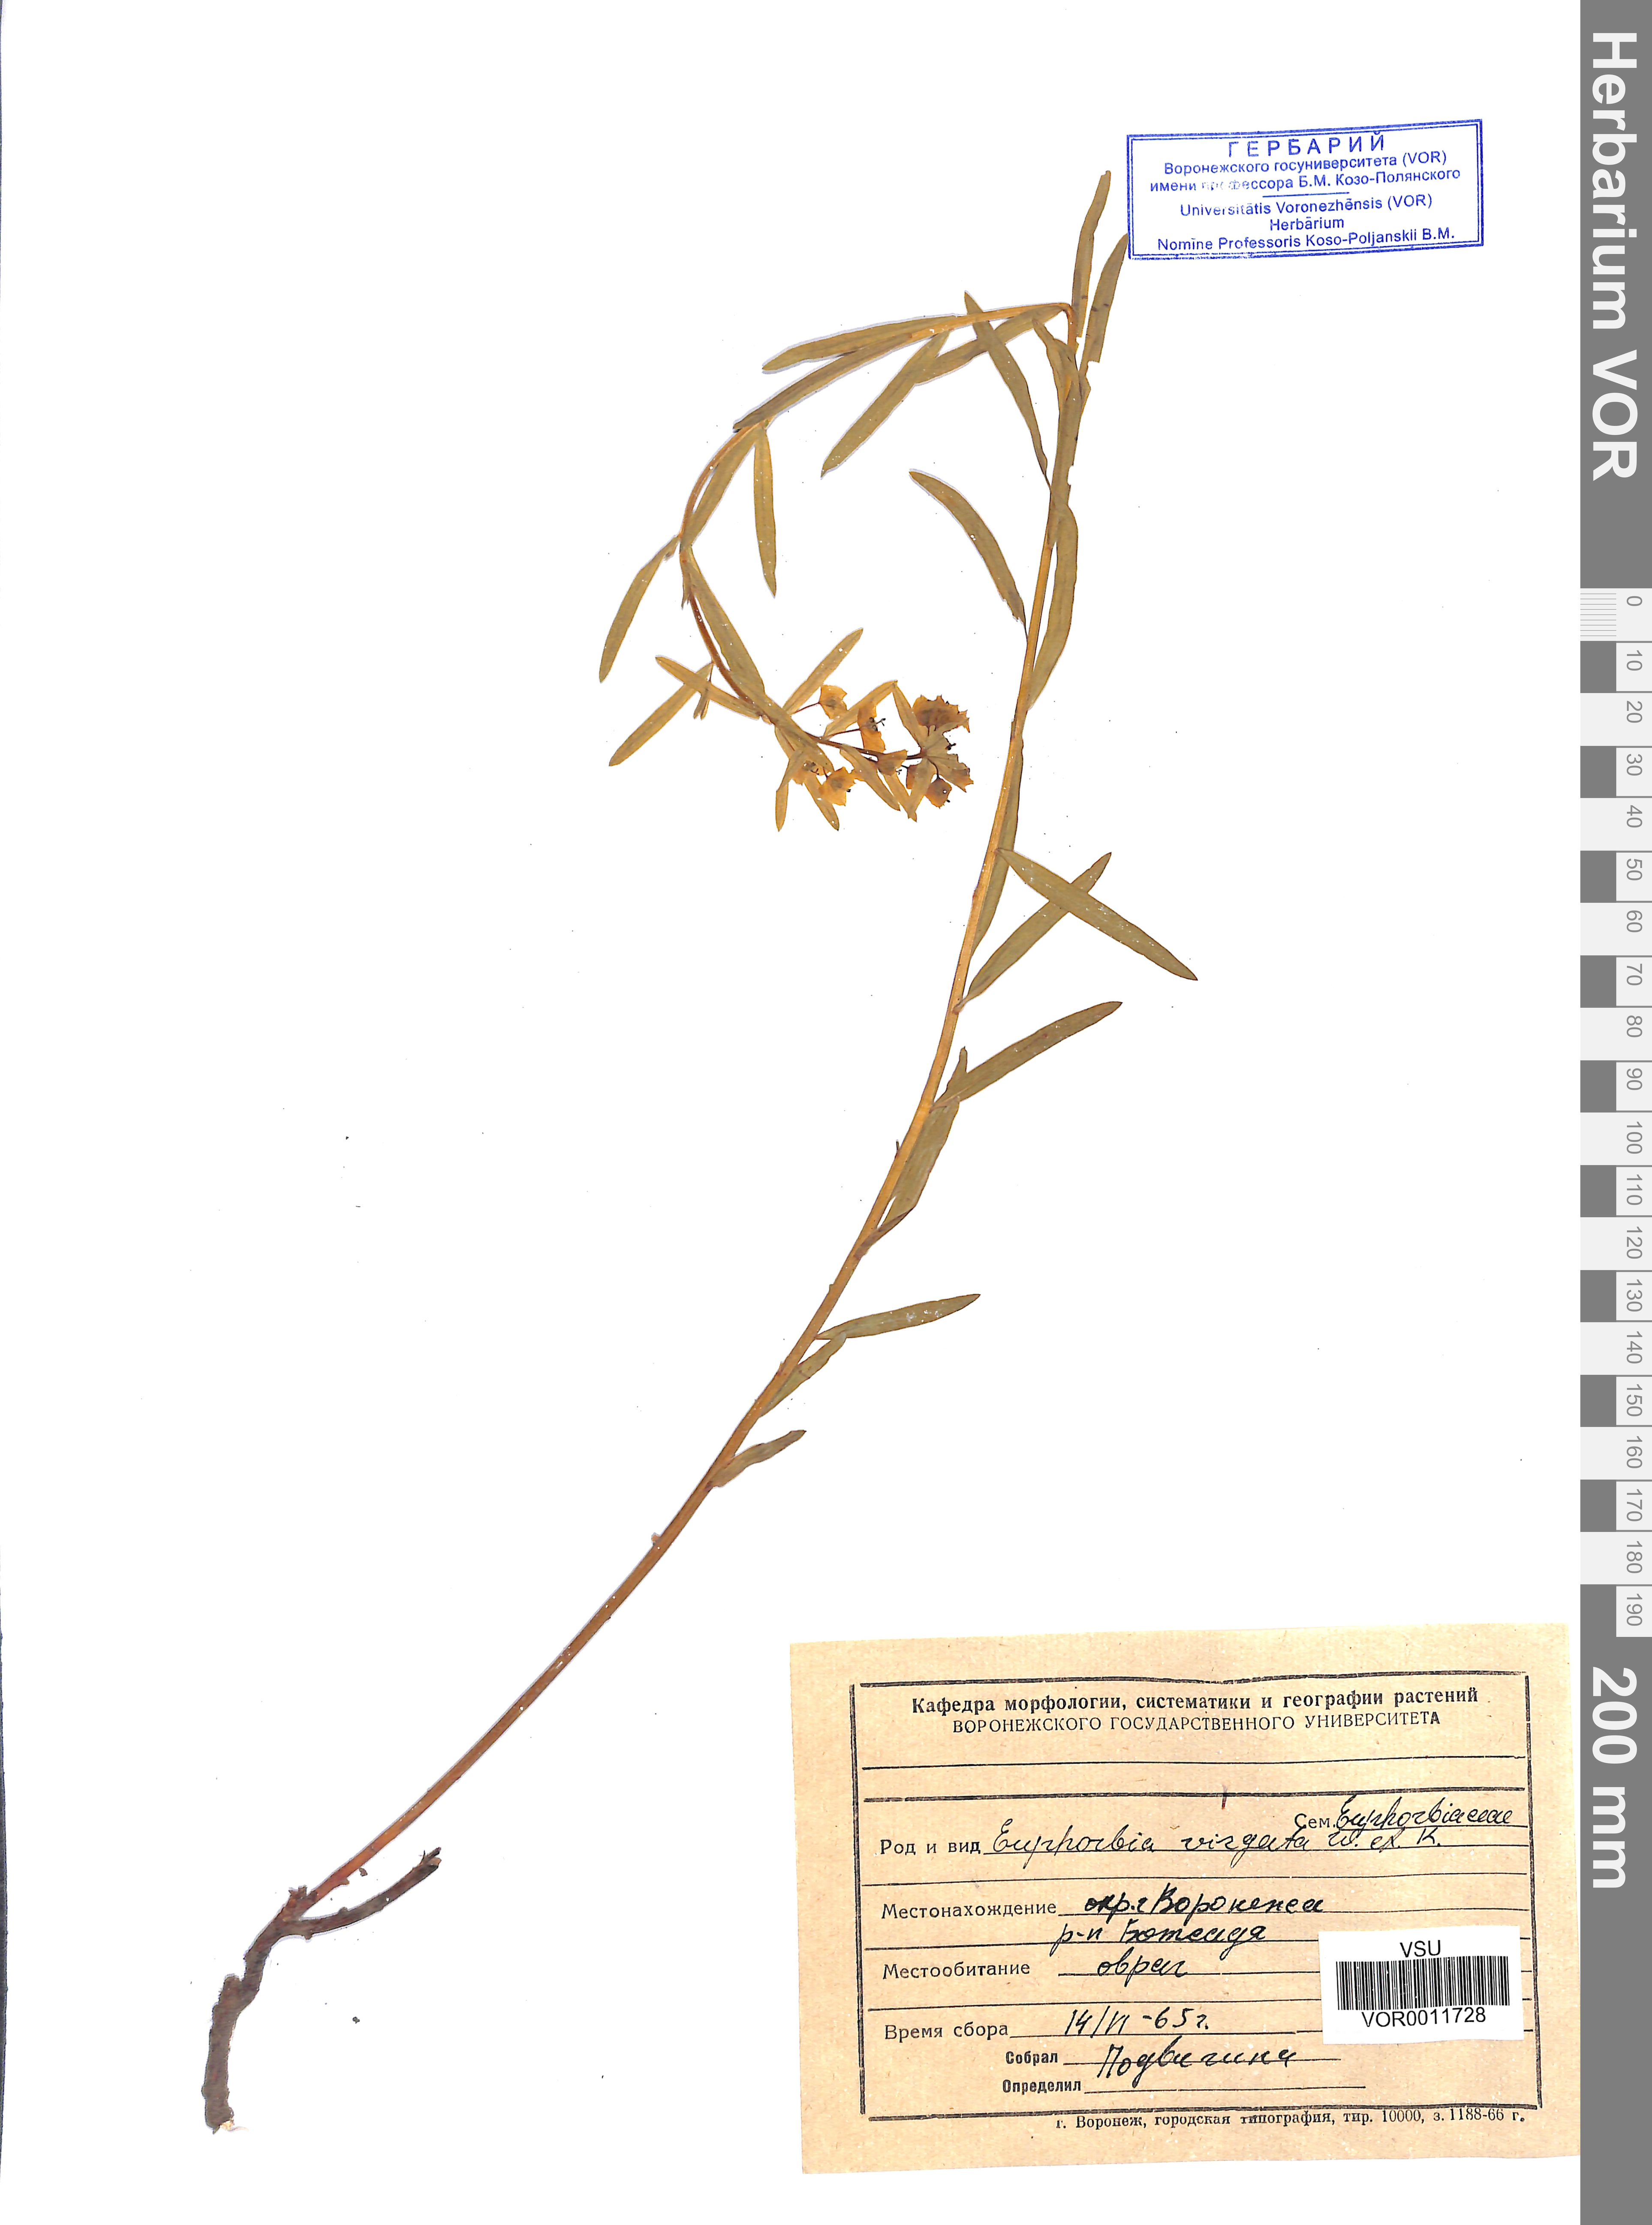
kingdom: Plantae
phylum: Tracheophyta
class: Magnoliopsida
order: Malpighiales
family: Euphorbiaceae
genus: Euphorbia
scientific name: Euphorbia virgata
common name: Leafy spurge
